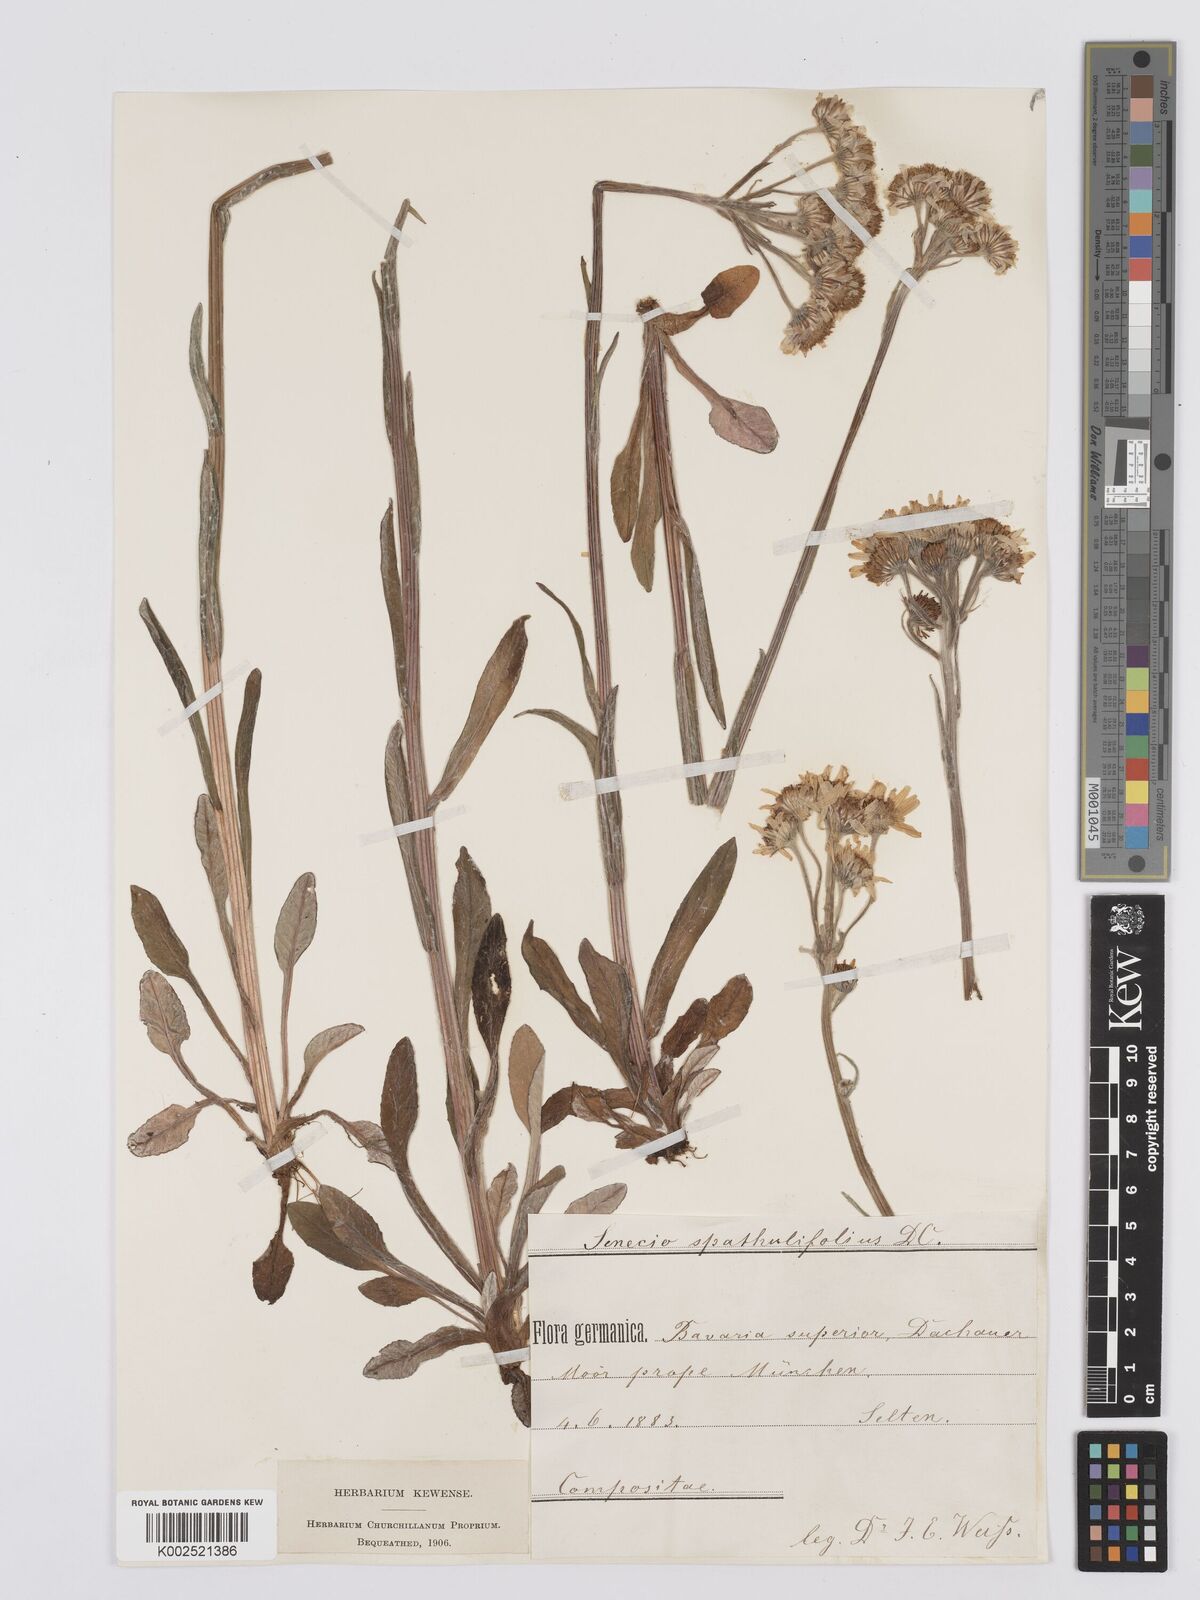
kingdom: Plantae
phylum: Tracheophyta
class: Magnoliopsida
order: Asterales
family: Asteraceae
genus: Tephroseris
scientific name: Tephroseris helenitis
